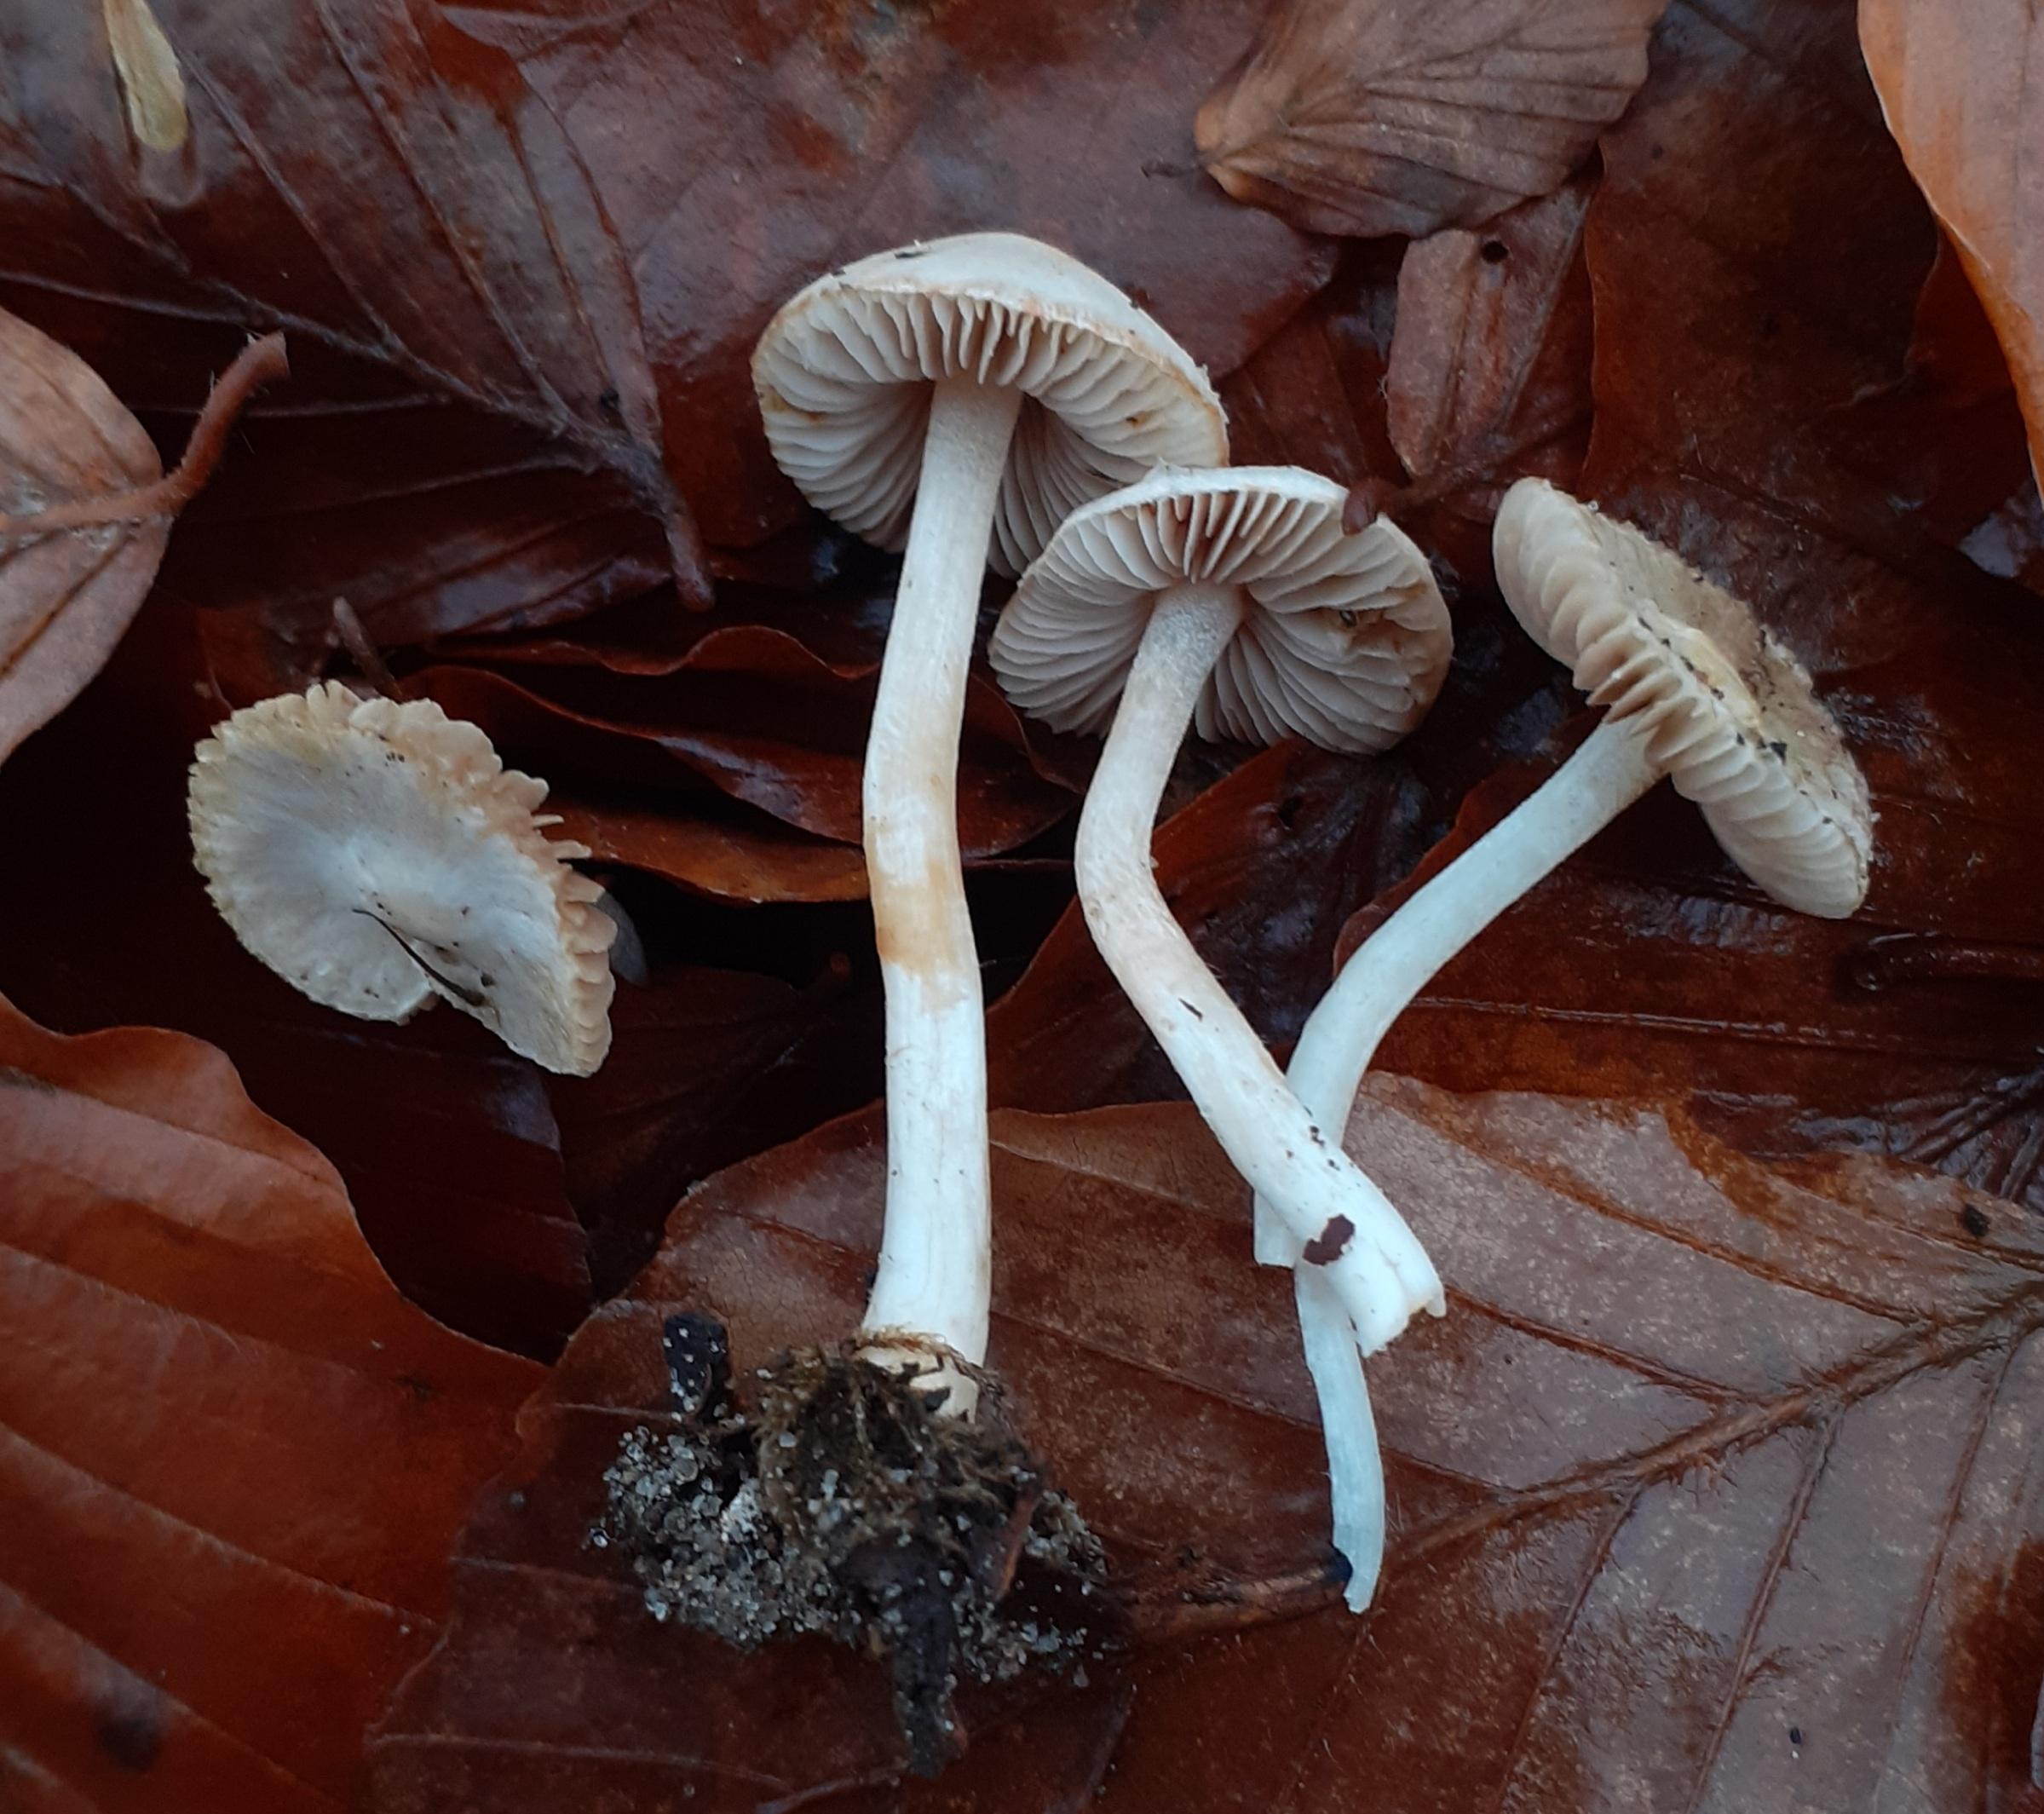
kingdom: Fungi
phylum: Basidiomycota
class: Agaricomycetes
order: Agaricales
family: Inocybaceae
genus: Inocybe
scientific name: Inocybe
